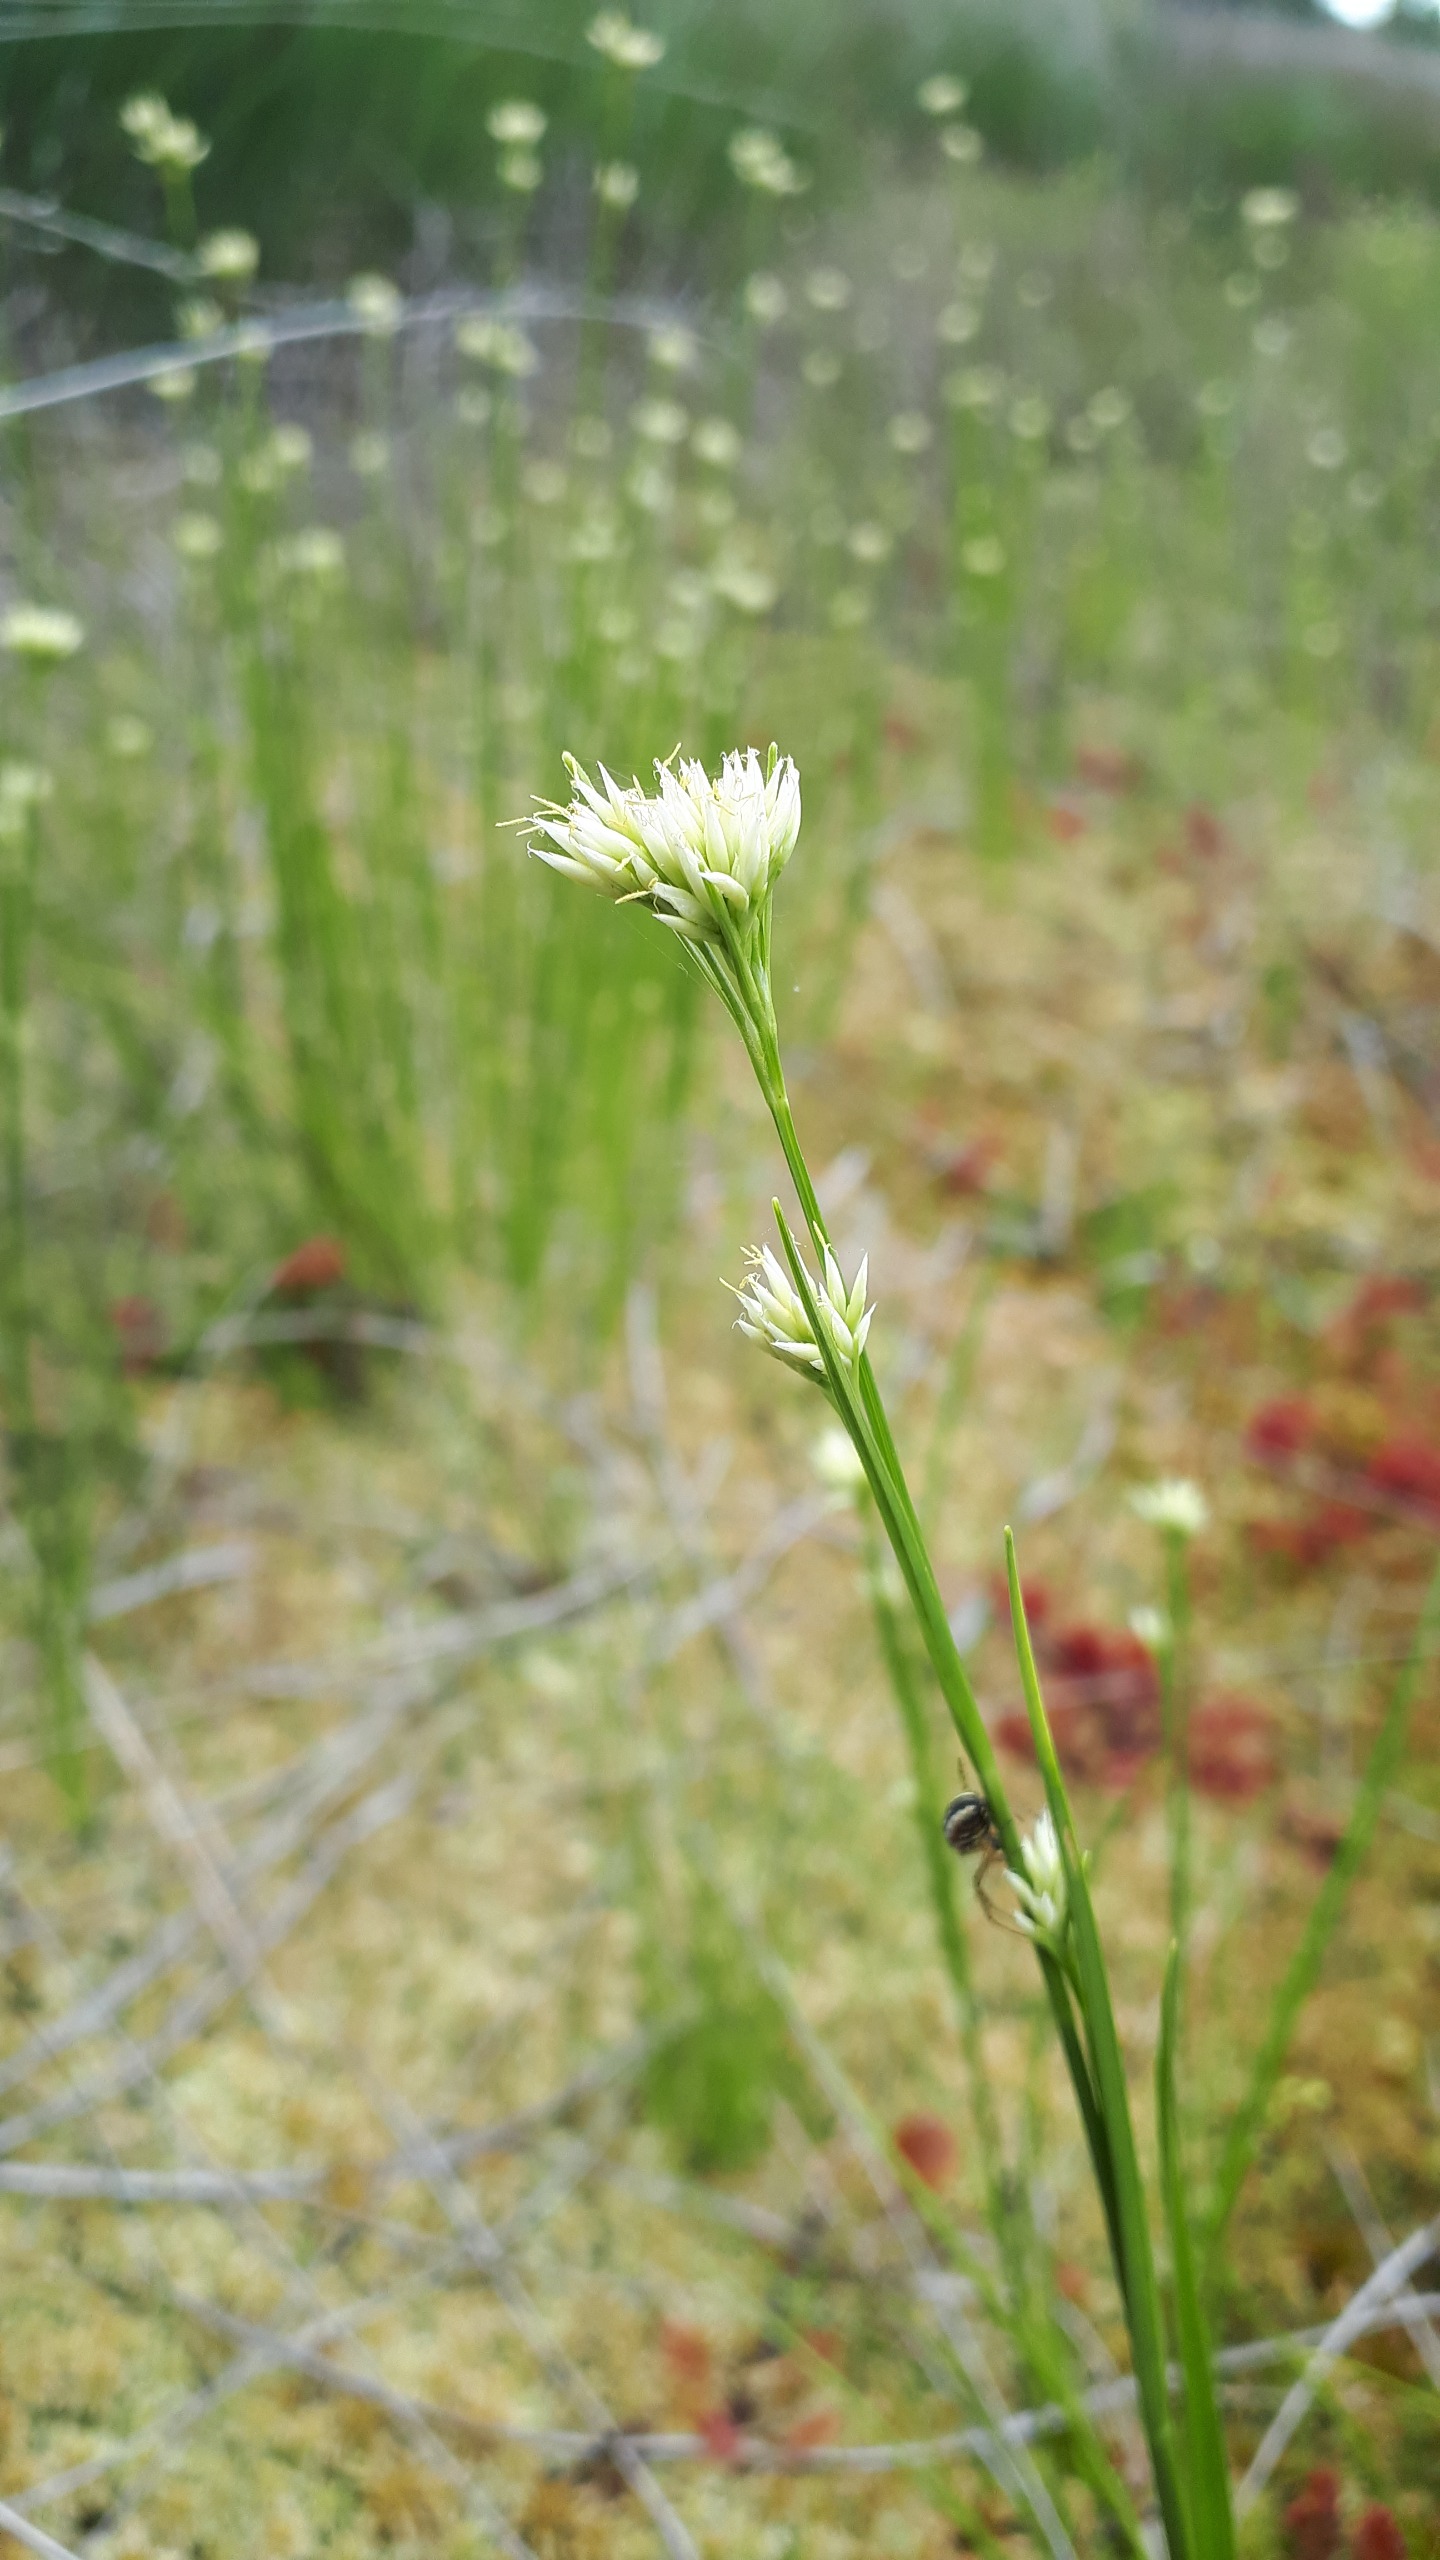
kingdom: Plantae
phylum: Tracheophyta
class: Liliopsida
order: Poales
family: Cyperaceae
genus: Rhynchospora
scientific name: Rhynchospora alba
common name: Hvid næbfrø
